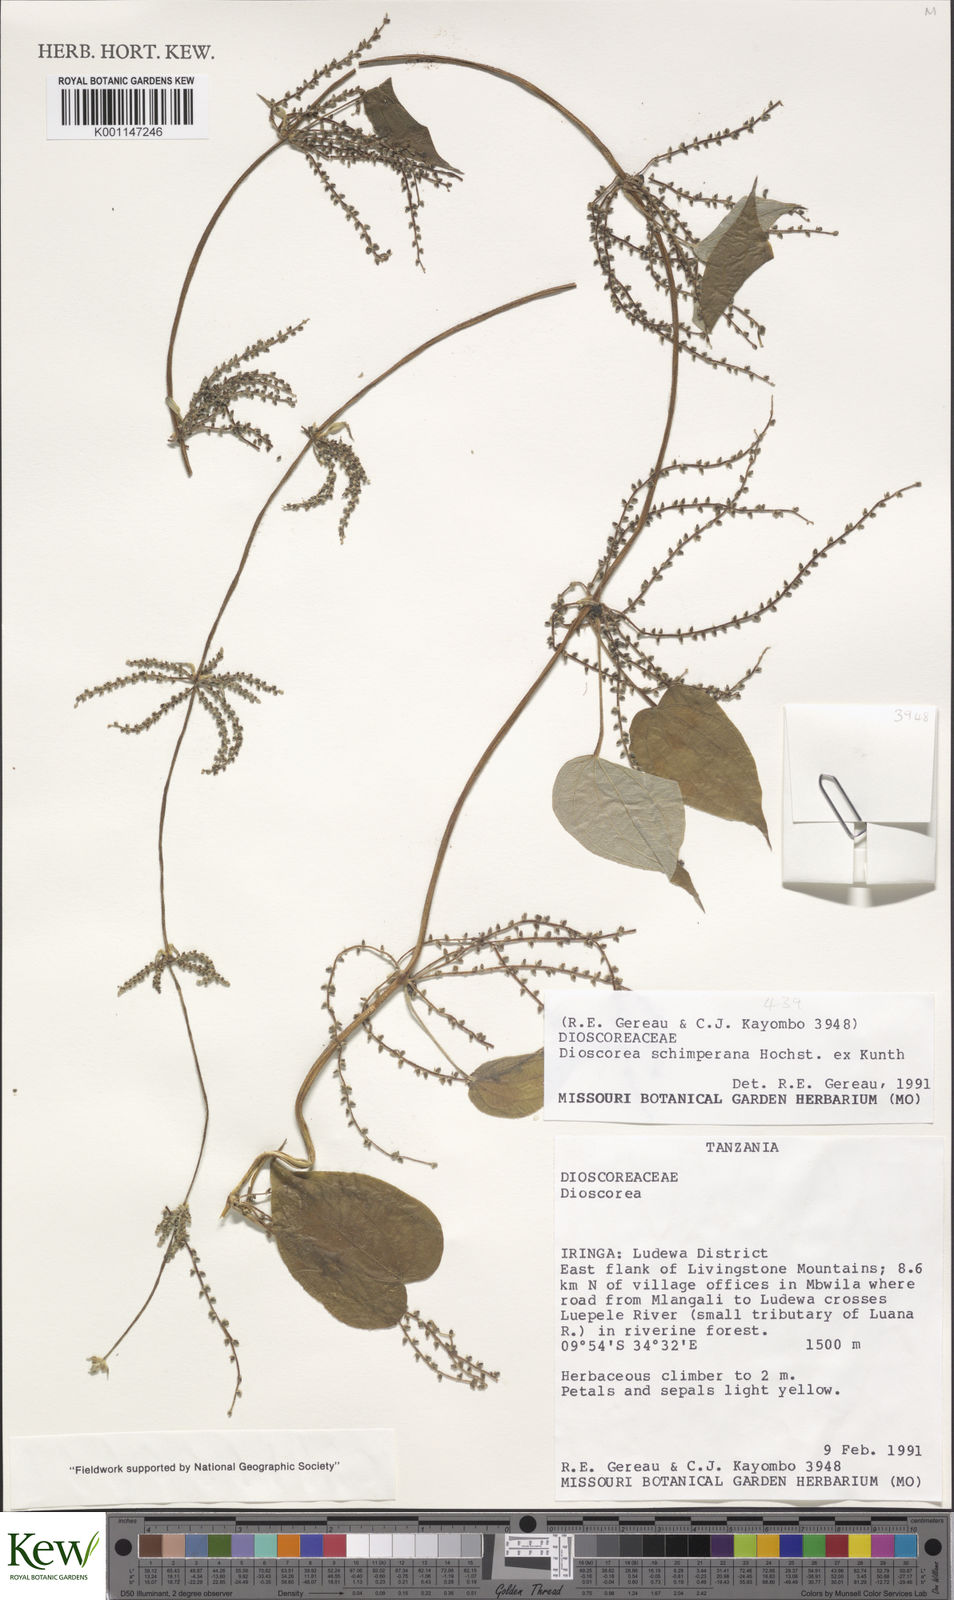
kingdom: Plantae
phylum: Tracheophyta
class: Liliopsida
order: Dioscoreales
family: Dioscoreaceae
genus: Dioscorea
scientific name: Dioscorea schimperiana
